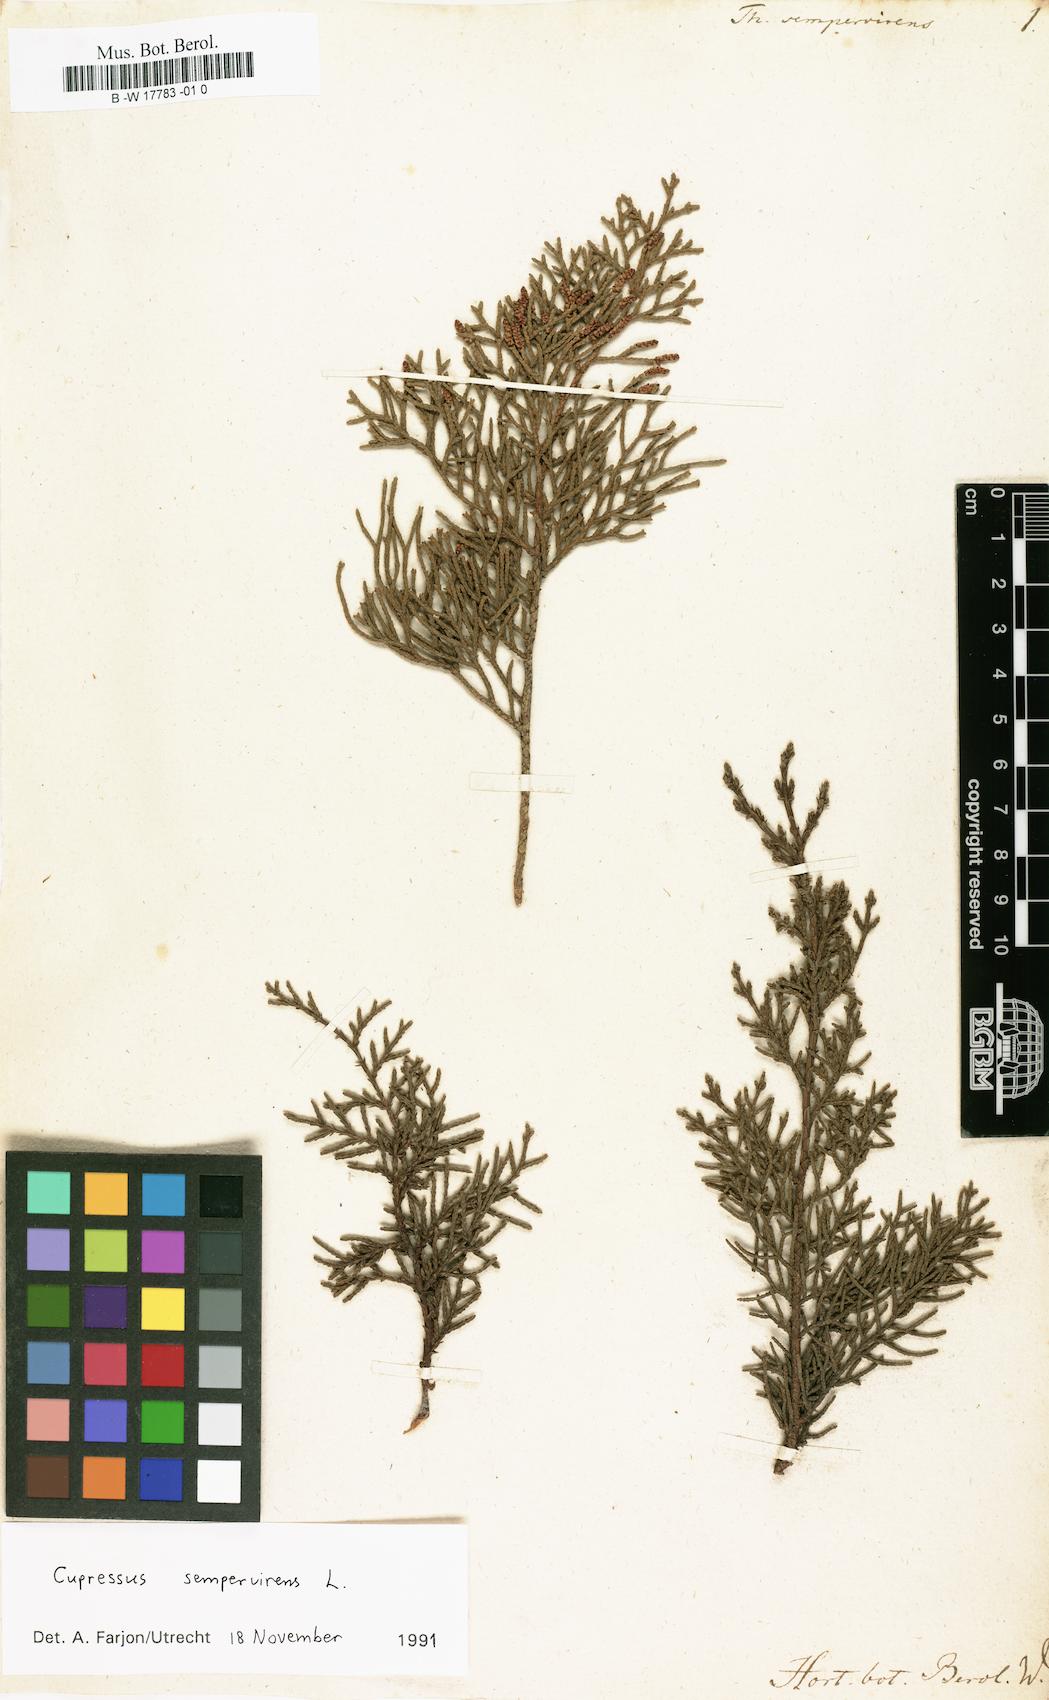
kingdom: Plantae
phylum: Tracheophyta
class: Pinopsida
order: Pinales
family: Cupressaceae
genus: Cupressus
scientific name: Cupressus sempervirens
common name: Italian cypress
